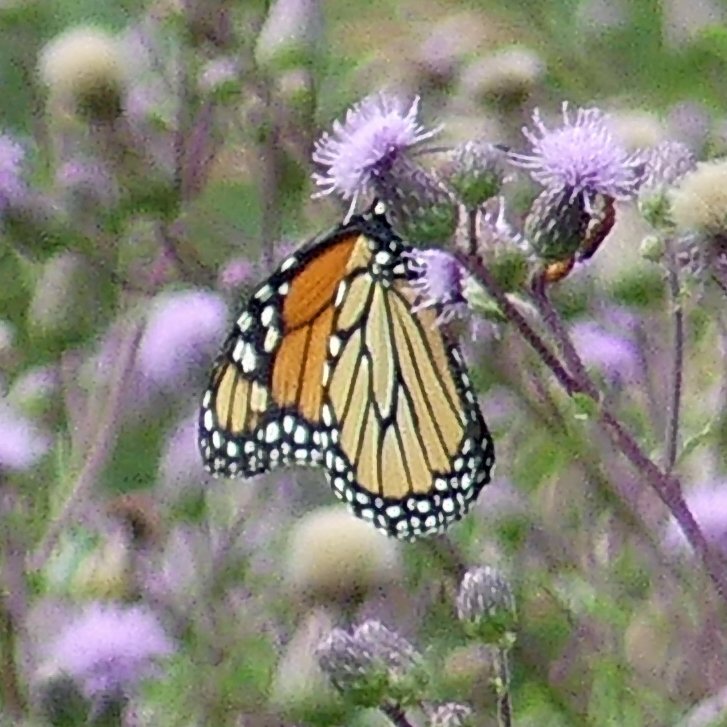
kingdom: Animalia
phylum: Arthropoda
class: Insecta
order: Lepidoptera
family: Nymphalidae
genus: Danaus
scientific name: Danaus plexippus
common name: Monarch
